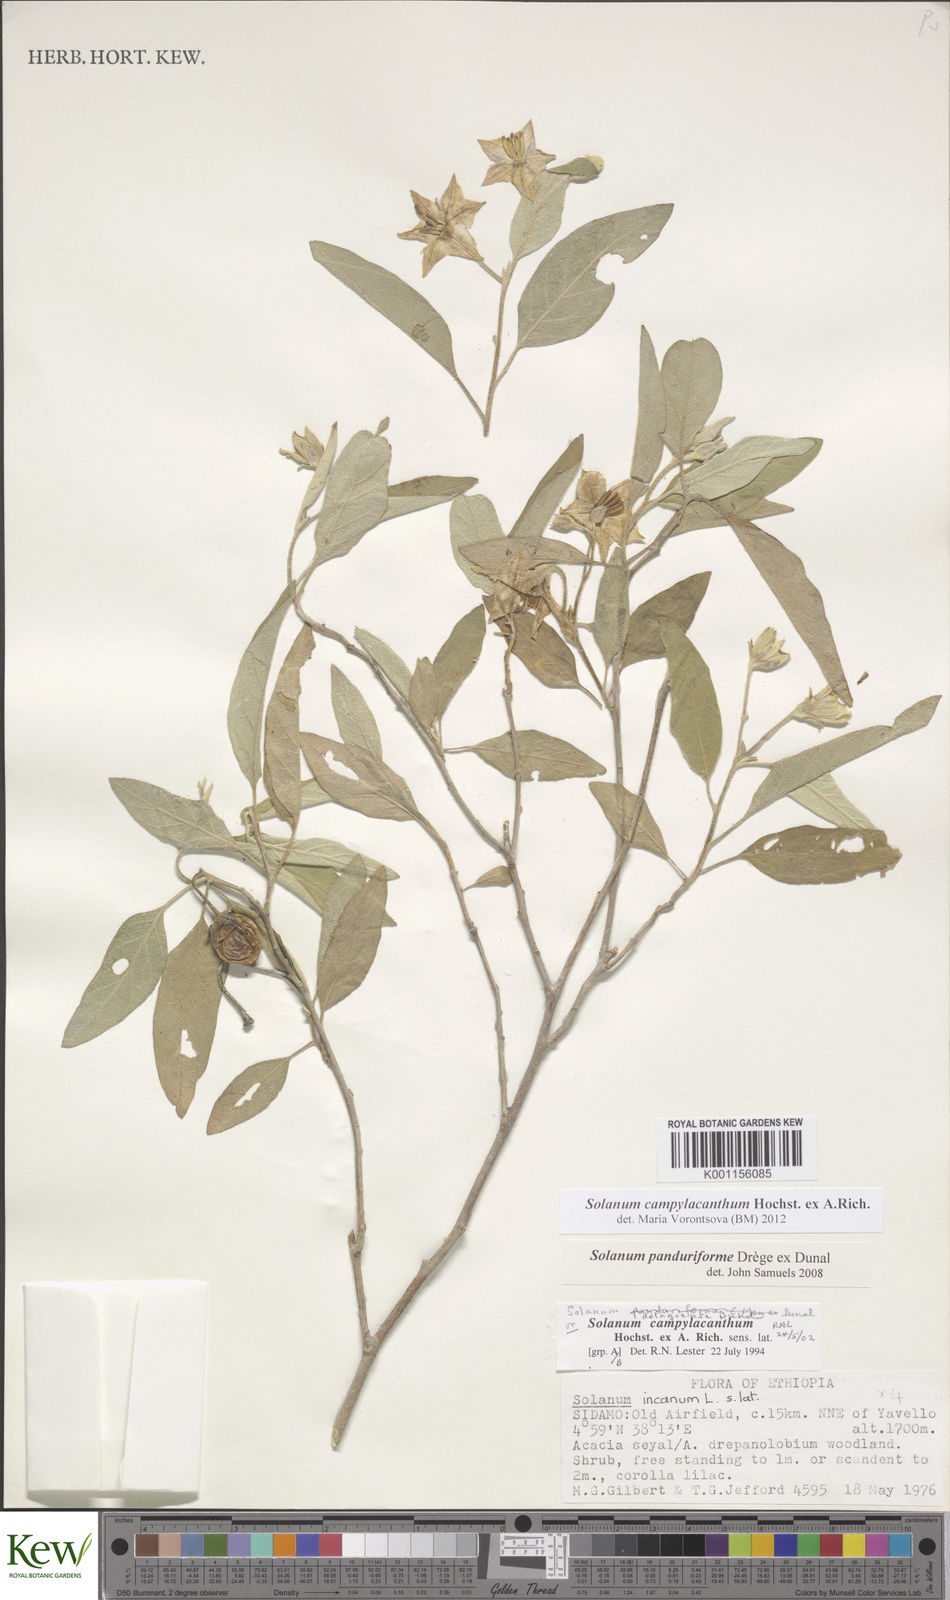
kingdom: Plantae
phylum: Tracheophyta
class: Magnoliopsida
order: Solanales
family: Solanaceae
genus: Solanum
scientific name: Solanum campylacanthum
